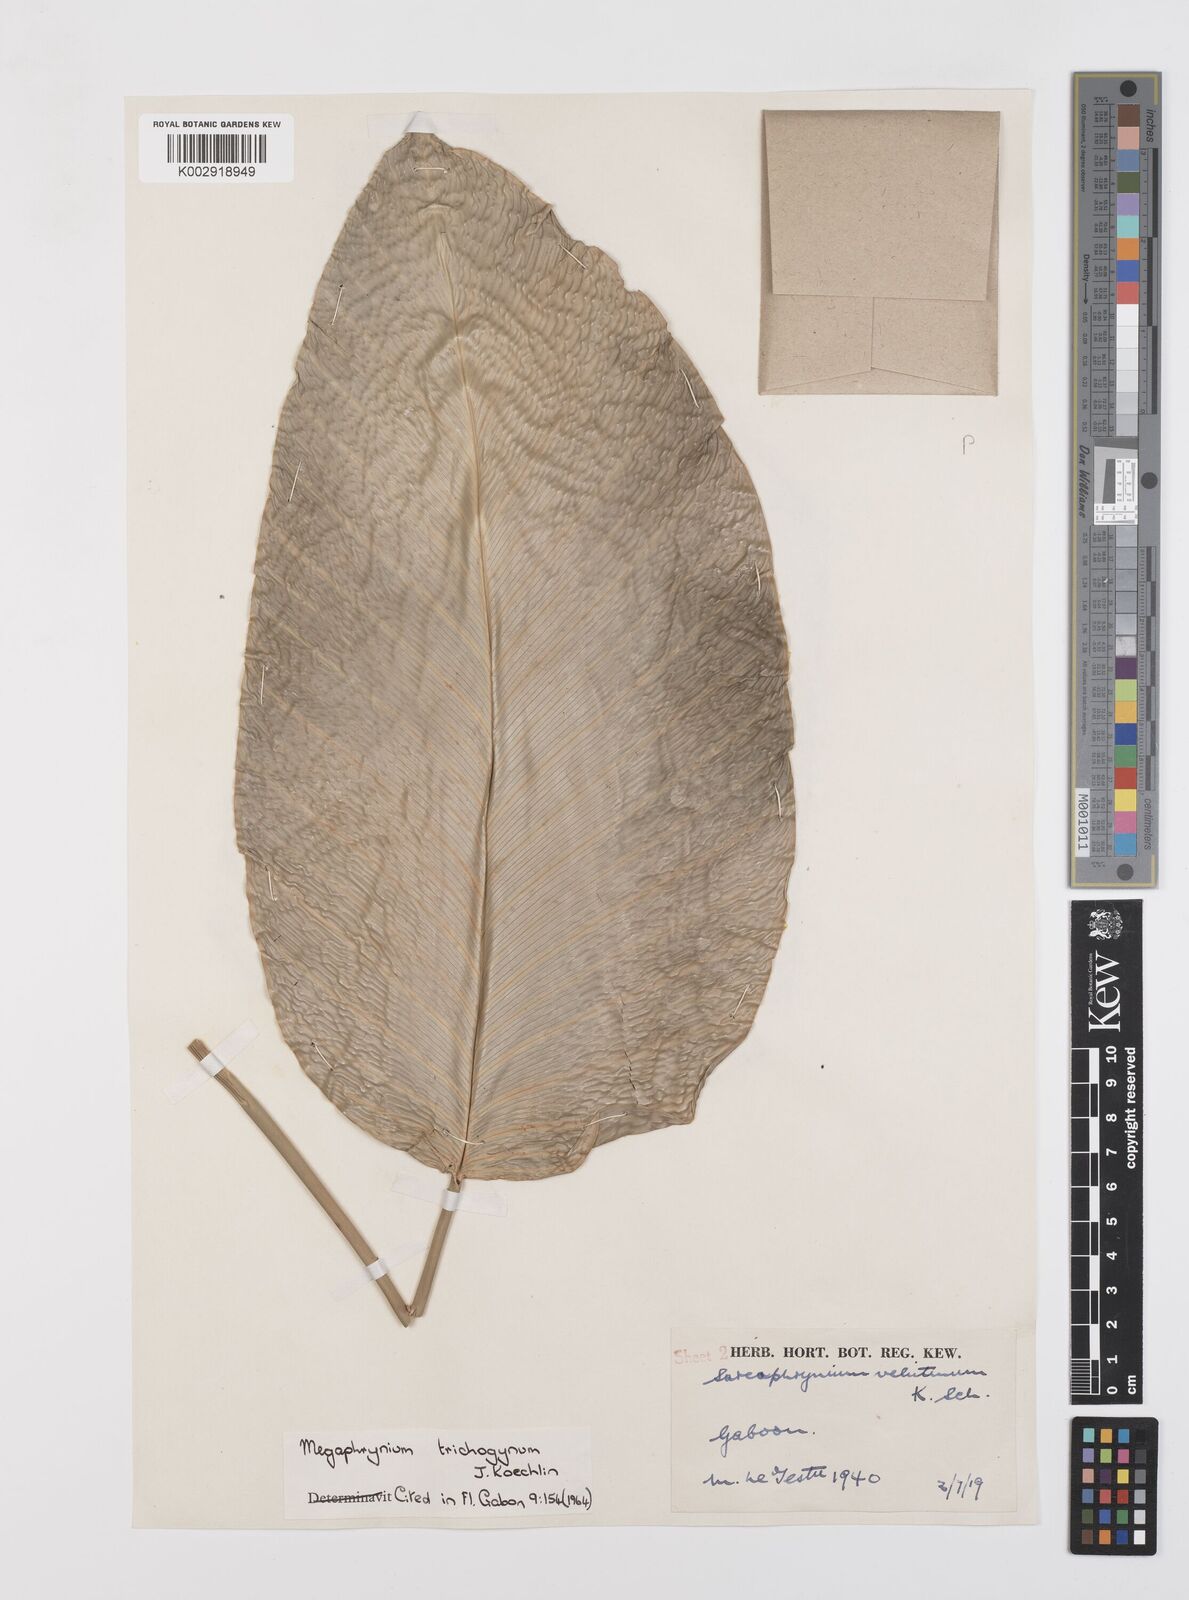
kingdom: Plantae
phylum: Tracheophyta
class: Liliopsida
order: Zingiberales
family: Marantaceae
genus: Megaphrynium
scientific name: Megaphrynium trichogynum
